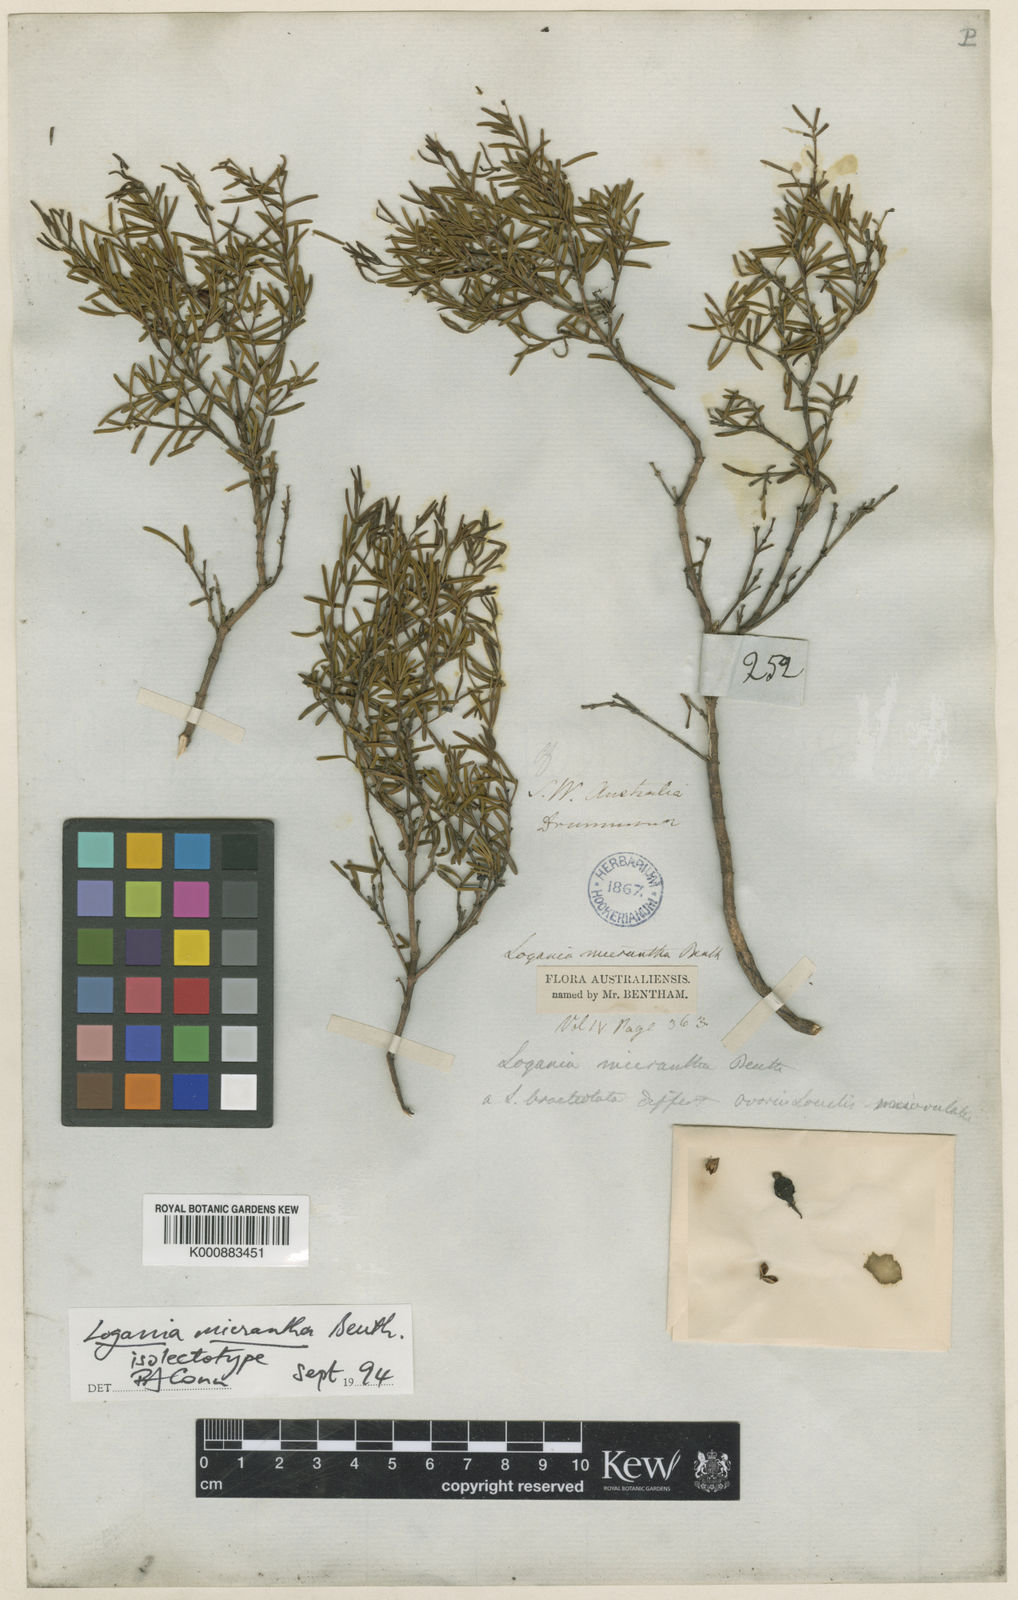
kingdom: Plantae
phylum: Tracheophyta
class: Magnoliopsida
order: Gentianales
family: Loganiaceae
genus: Logania
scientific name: Logania micrantha
